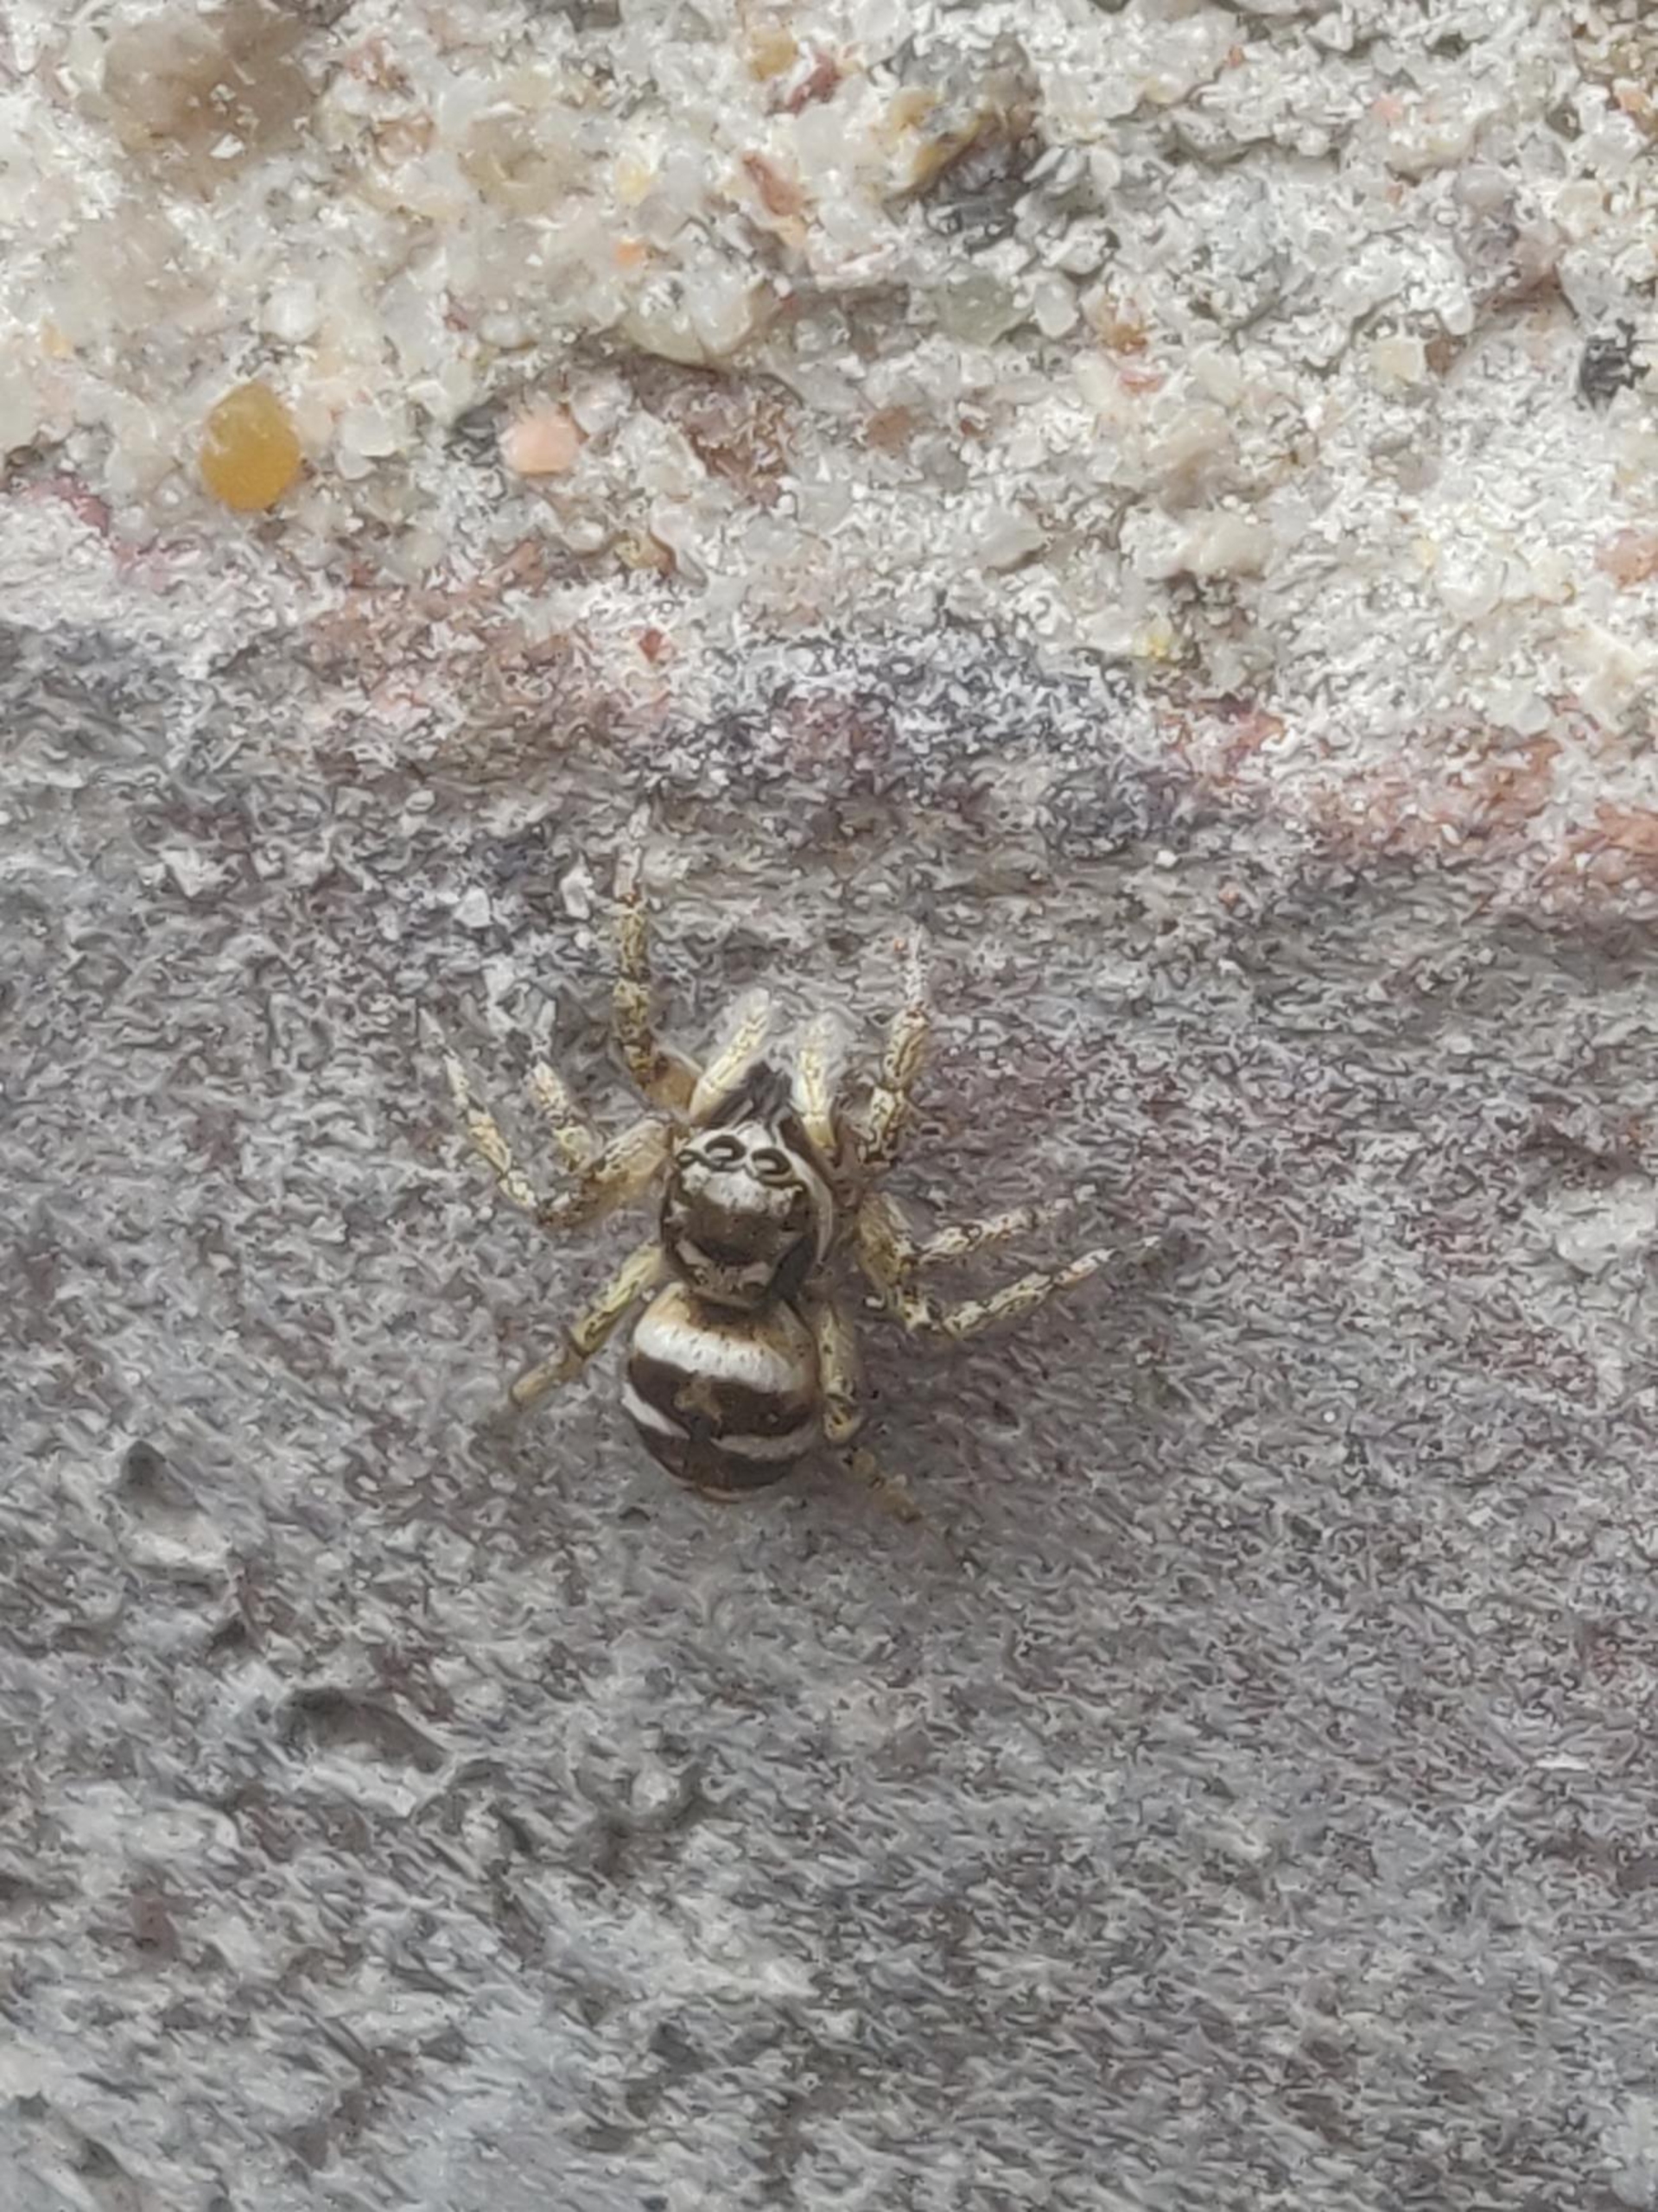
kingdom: Animalia
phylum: Arthropoda
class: Arachnida
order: Araneae
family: Salticidae
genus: Salticus
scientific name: Salticus scenicus
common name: Almindelig zebraedderkop
